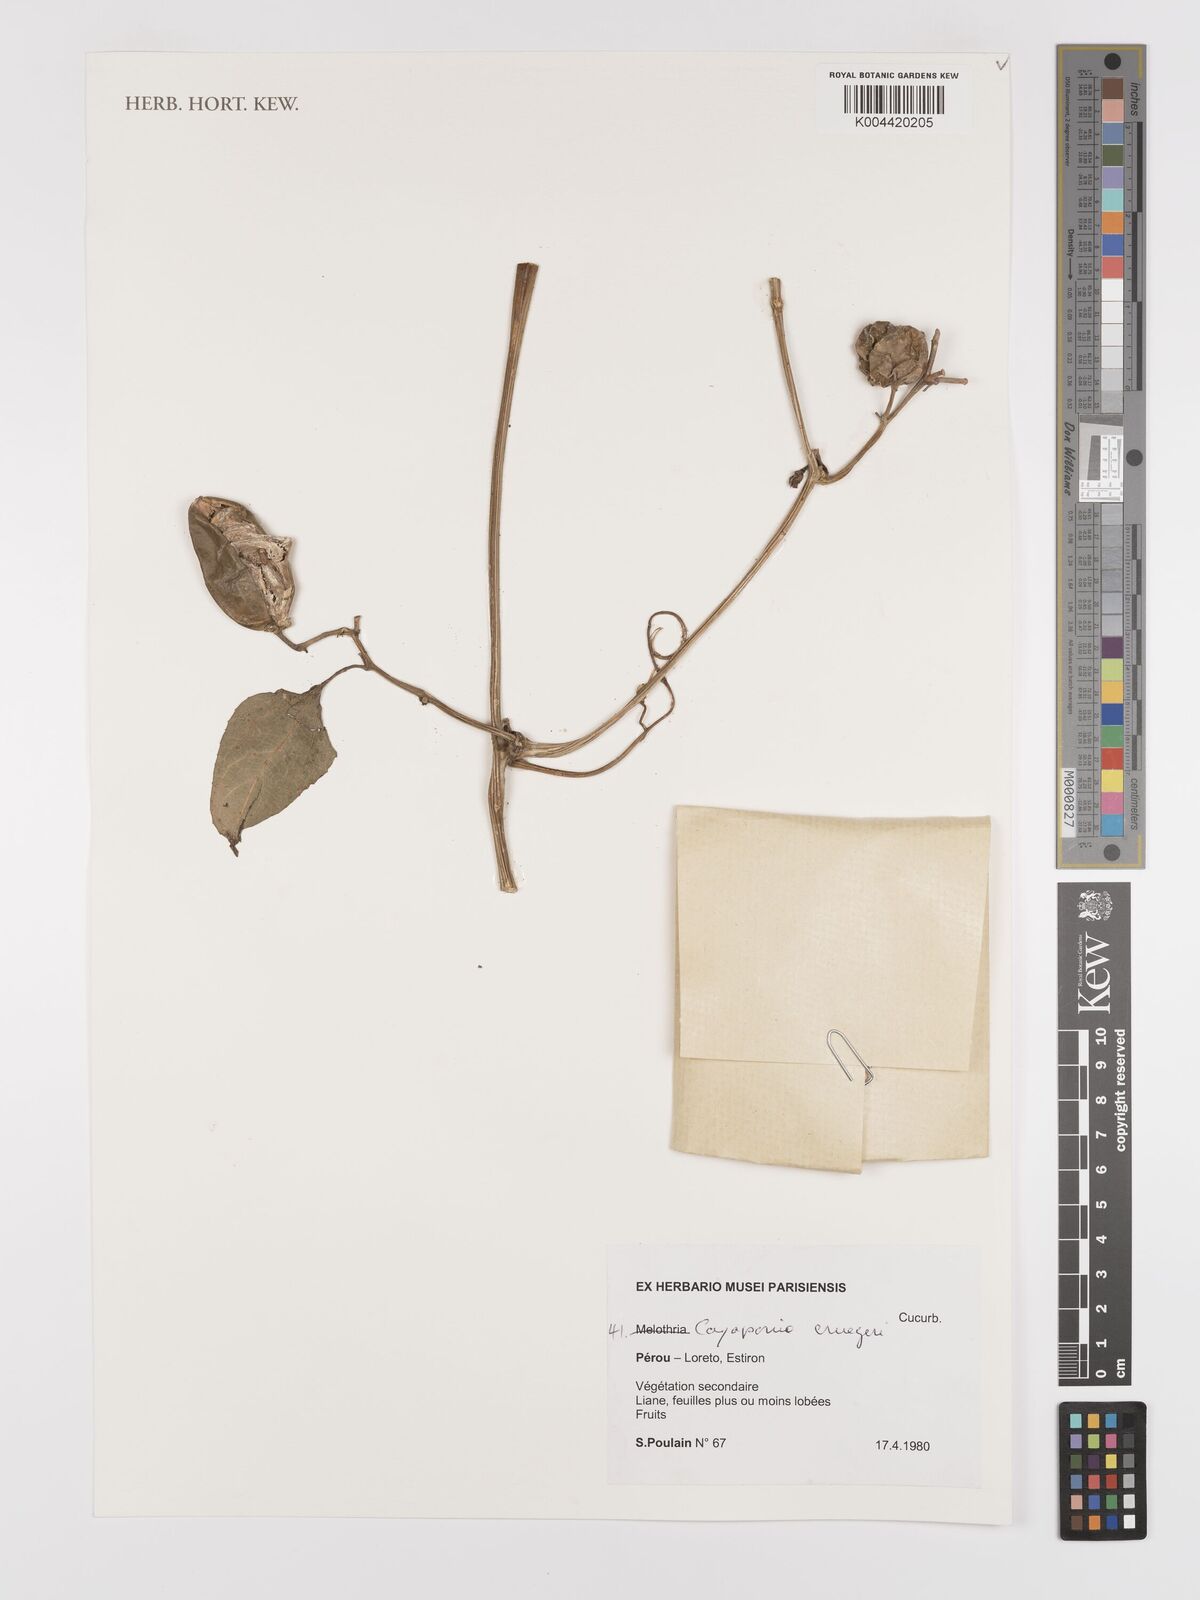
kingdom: Plantae
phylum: Tracheophyta
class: Magnoliopsida
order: Cucurbitales
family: Cucurbitaceae
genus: Cayaponia
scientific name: Cayaponia cruegeri
